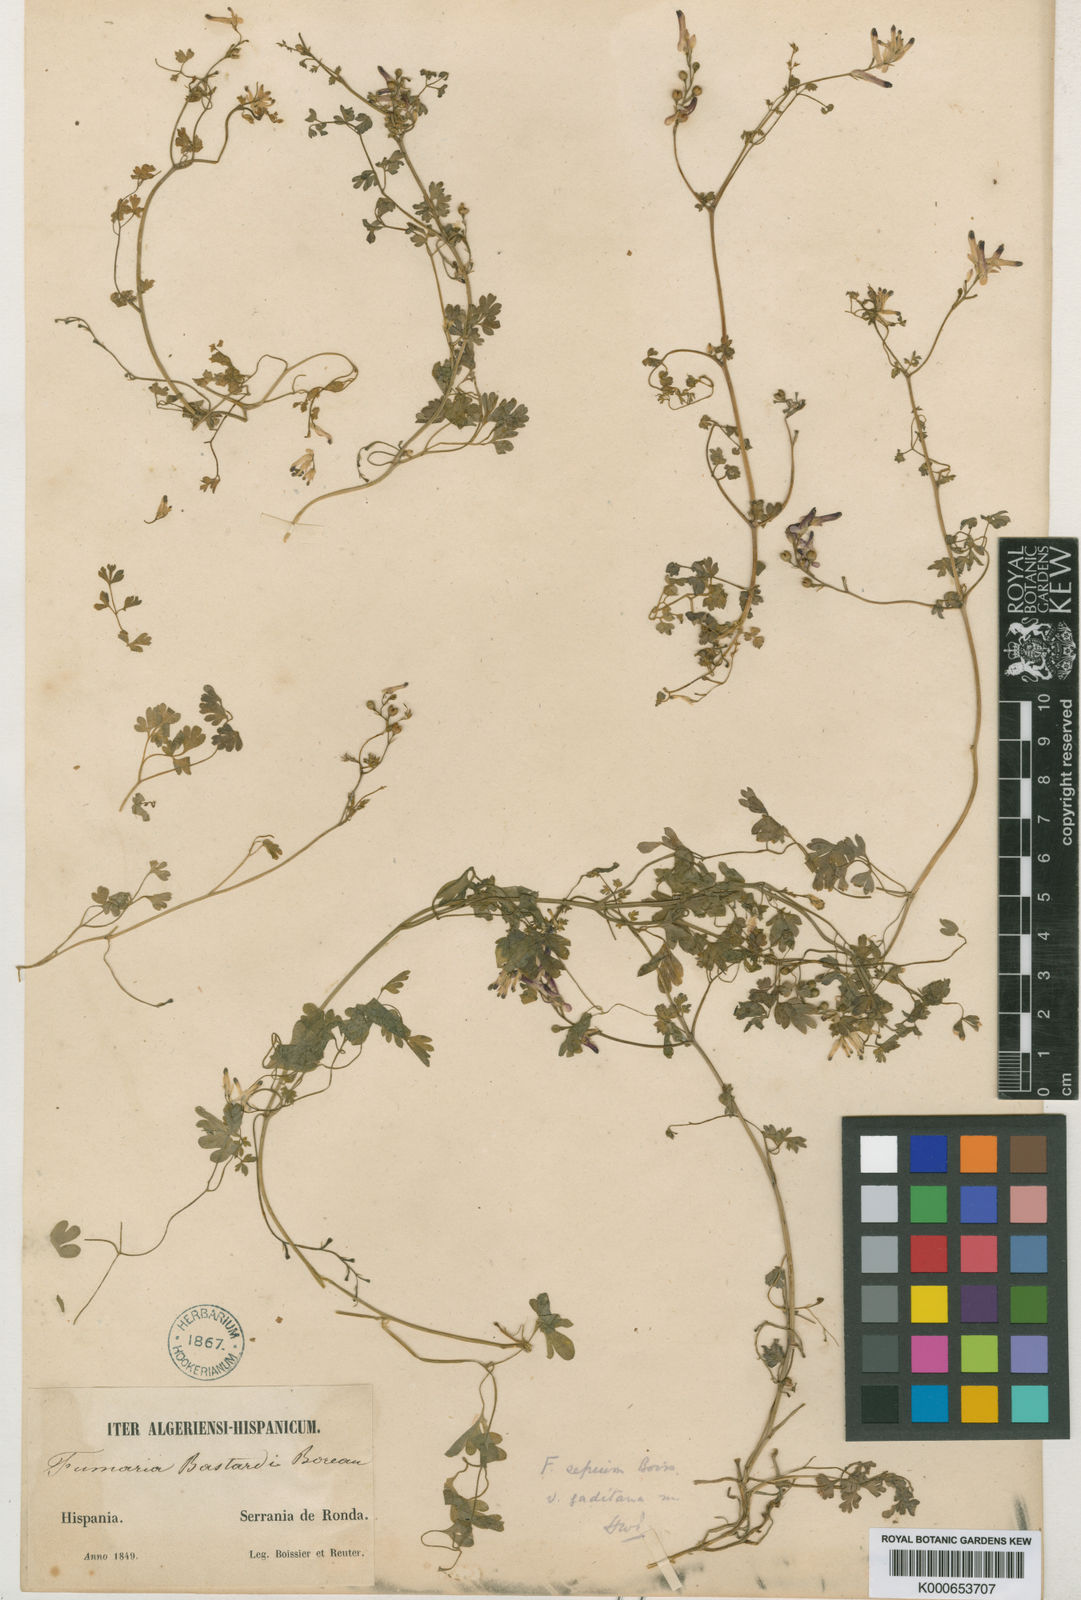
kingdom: Plantae
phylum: Tracheophyta
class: Magnoliopsida
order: Ranunculales
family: Papaveraceae
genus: Fumaria
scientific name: Fumaria sepium
